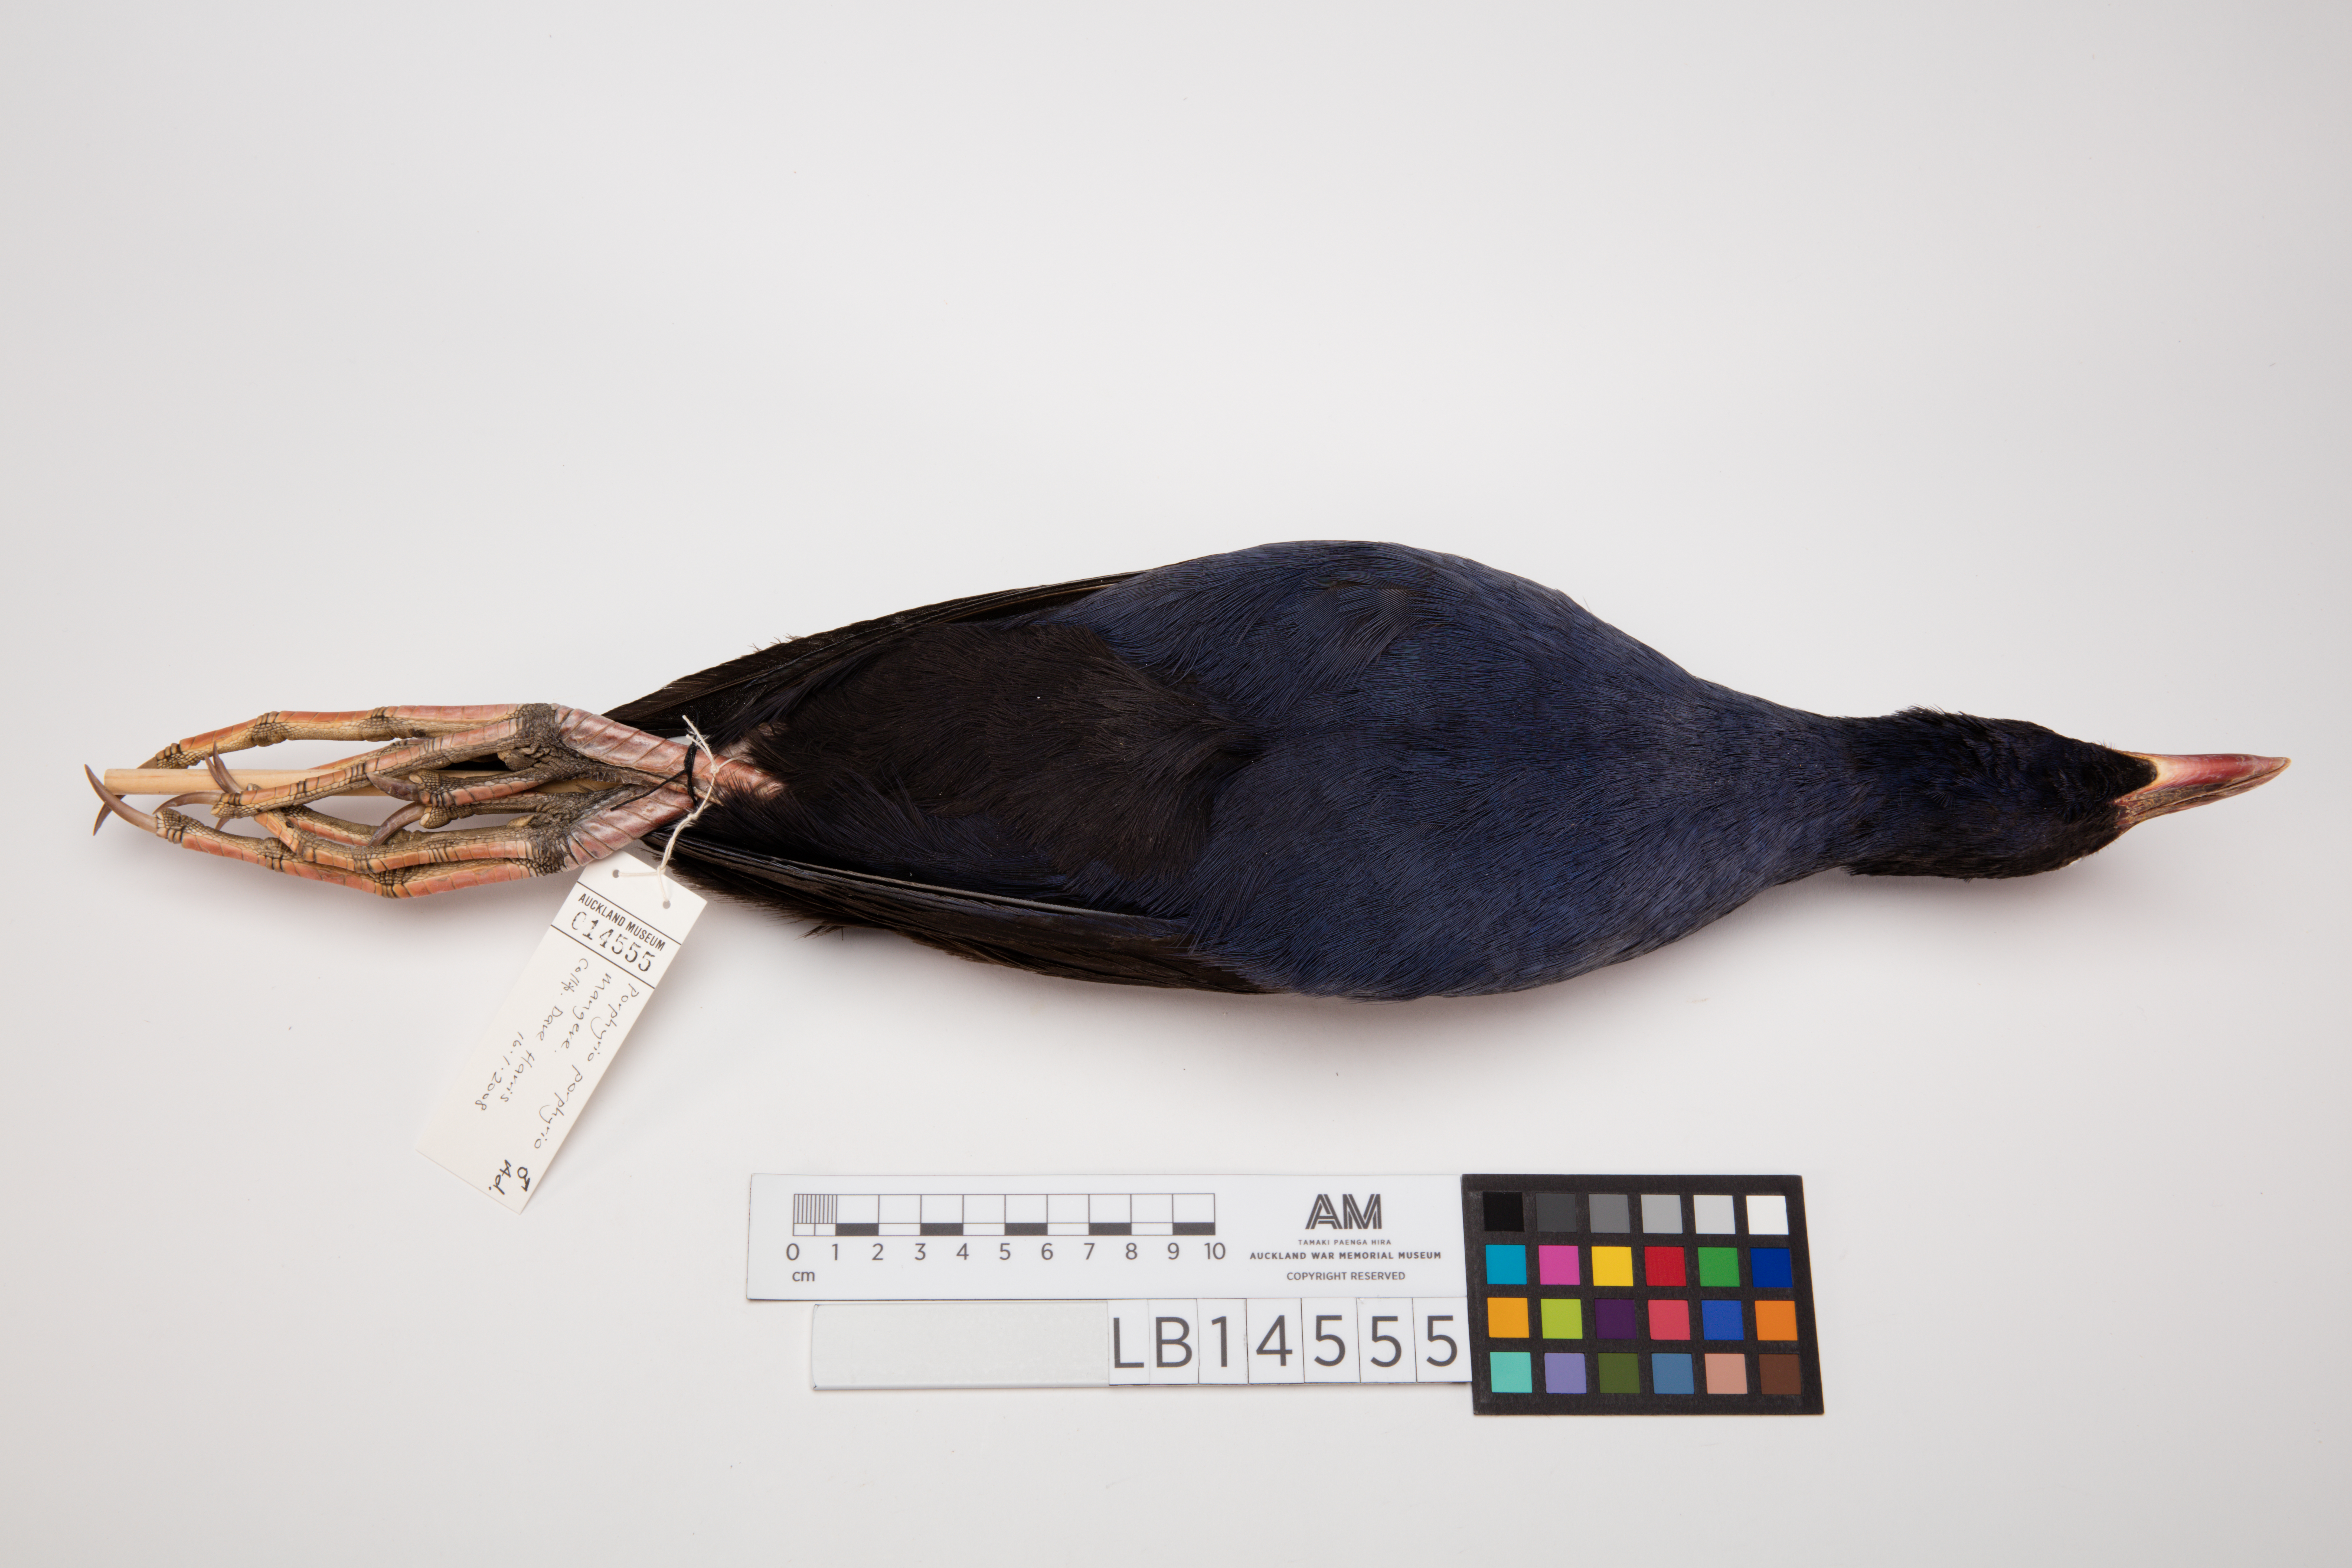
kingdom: Animalia
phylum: Chordata
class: Aves
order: Gruiformes
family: Rallidae
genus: Porphyrio
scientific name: Porphyrio melanotus
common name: Australasian swamphen
